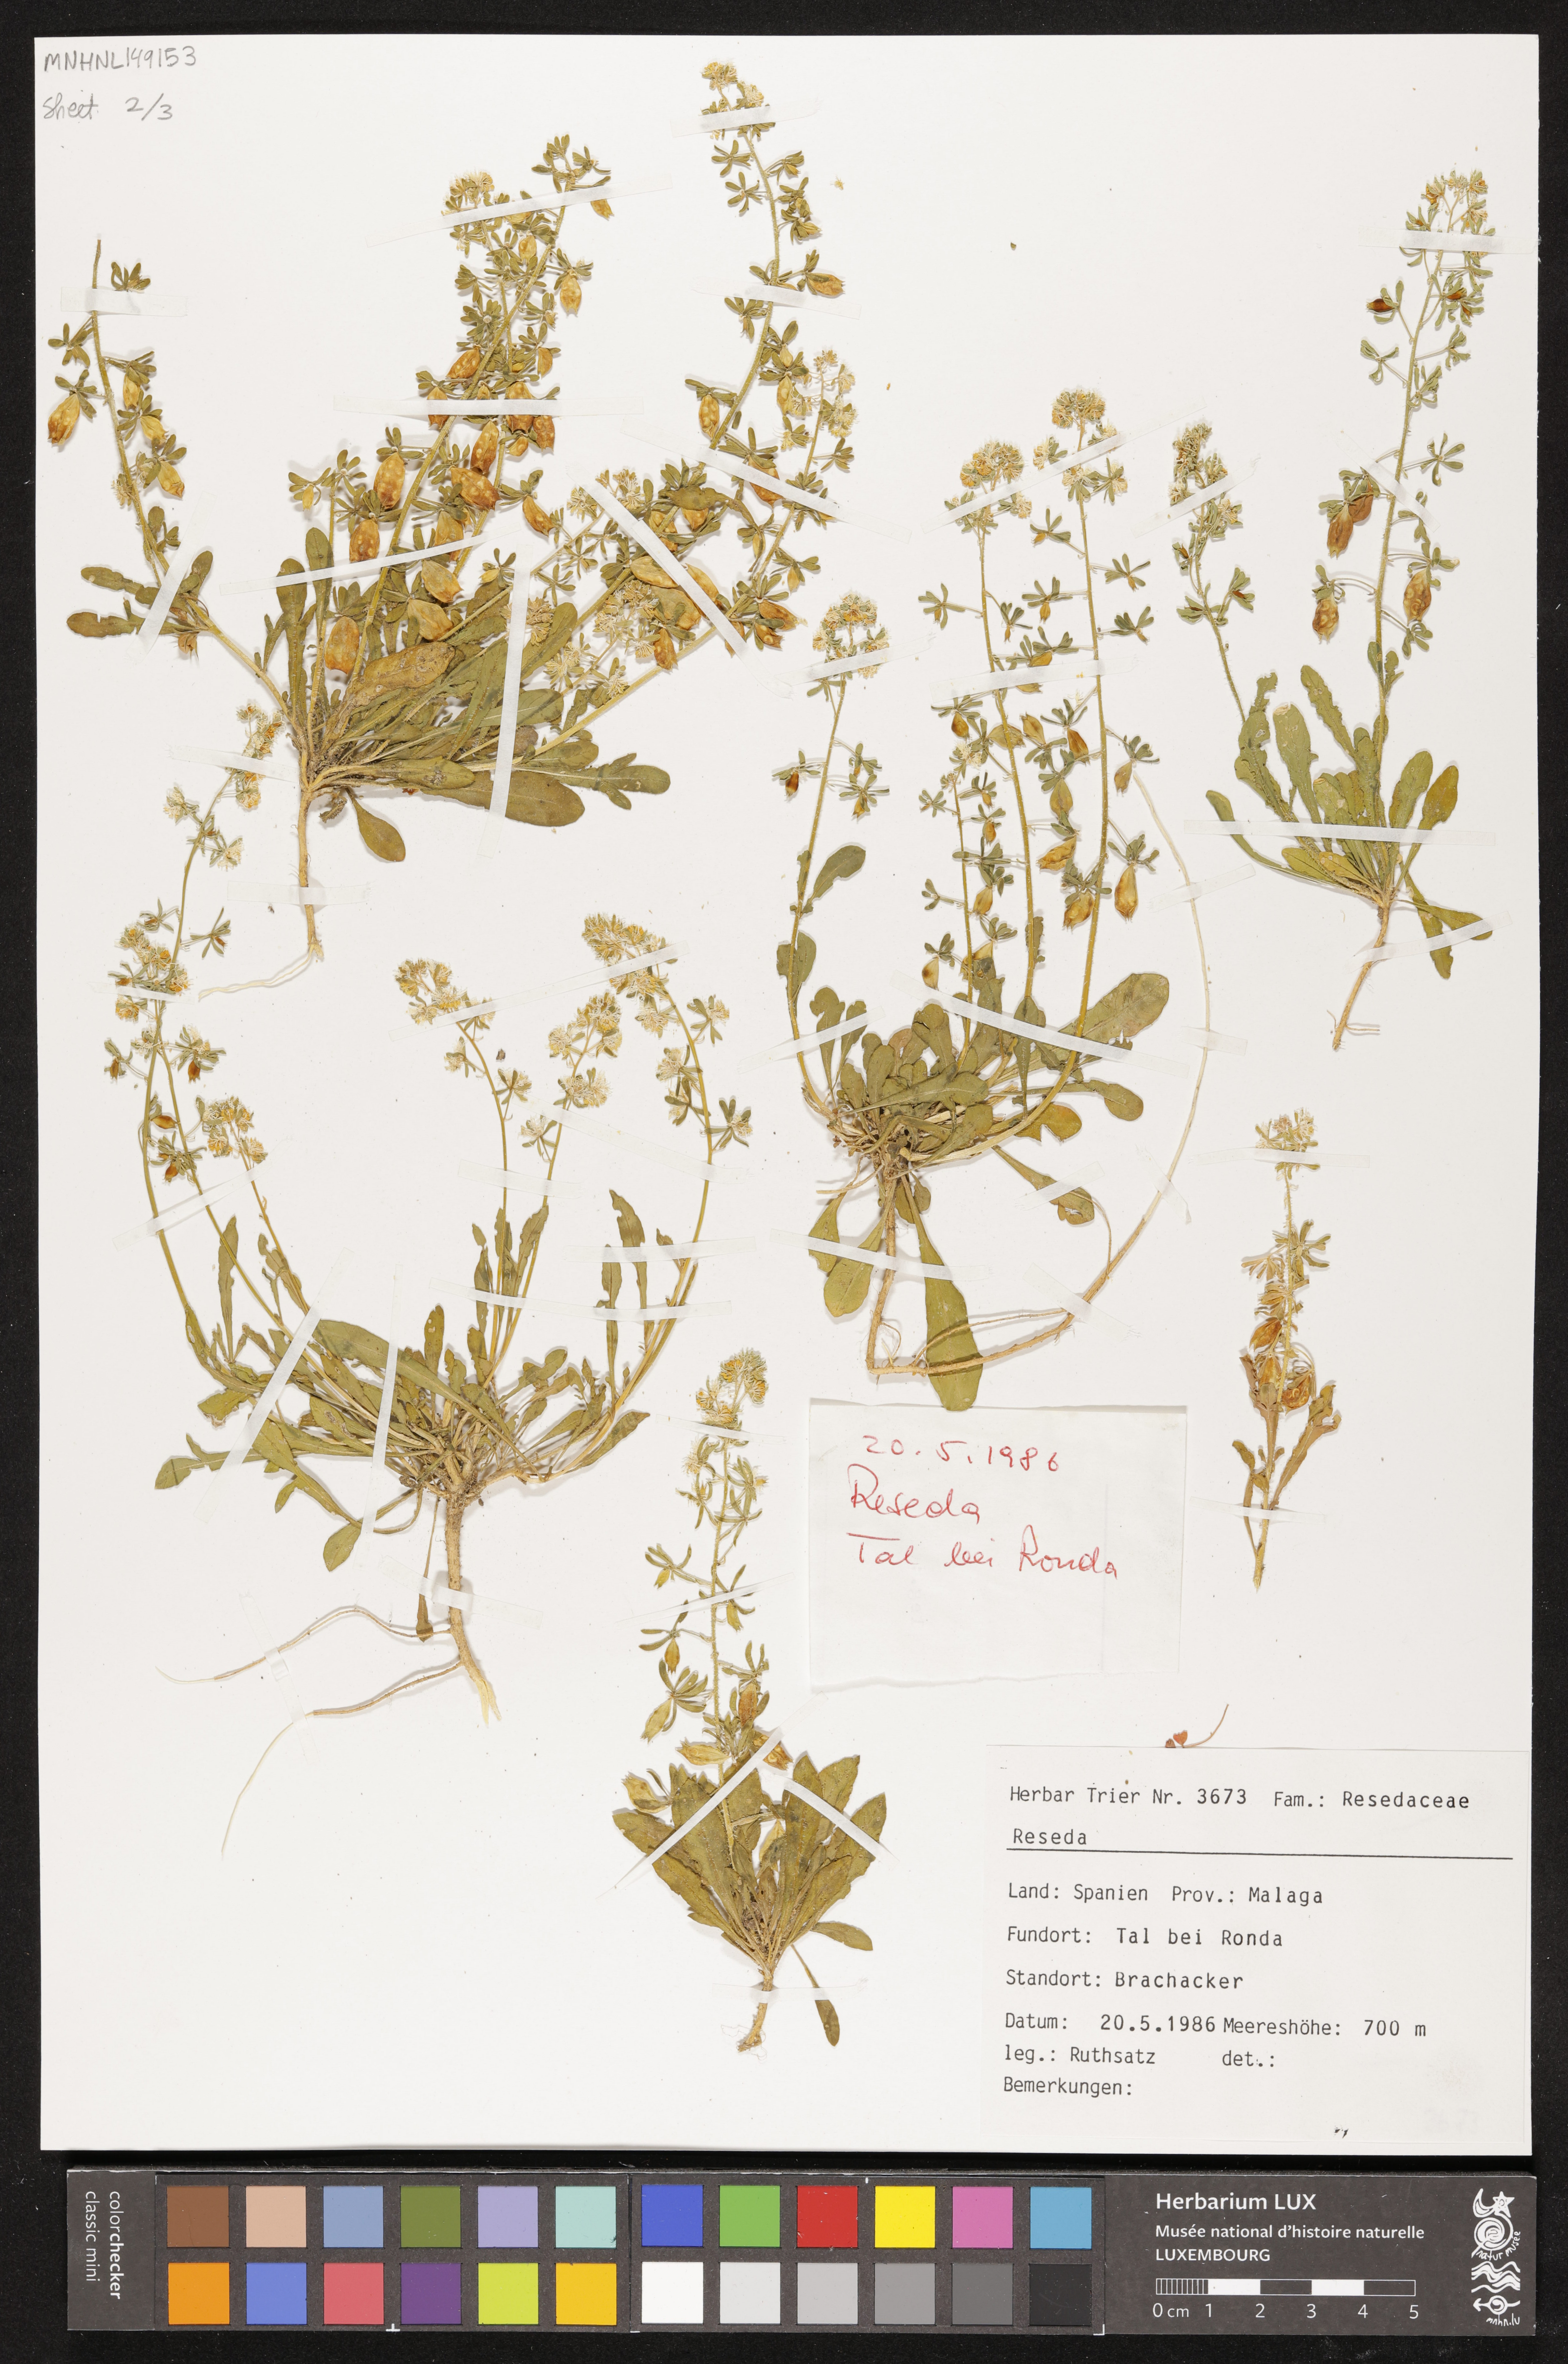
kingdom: Plantae
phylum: Tracheophyta
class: Magnoliopsida
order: Brassicales
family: Resedaceae
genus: Reseda
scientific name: Reseda
